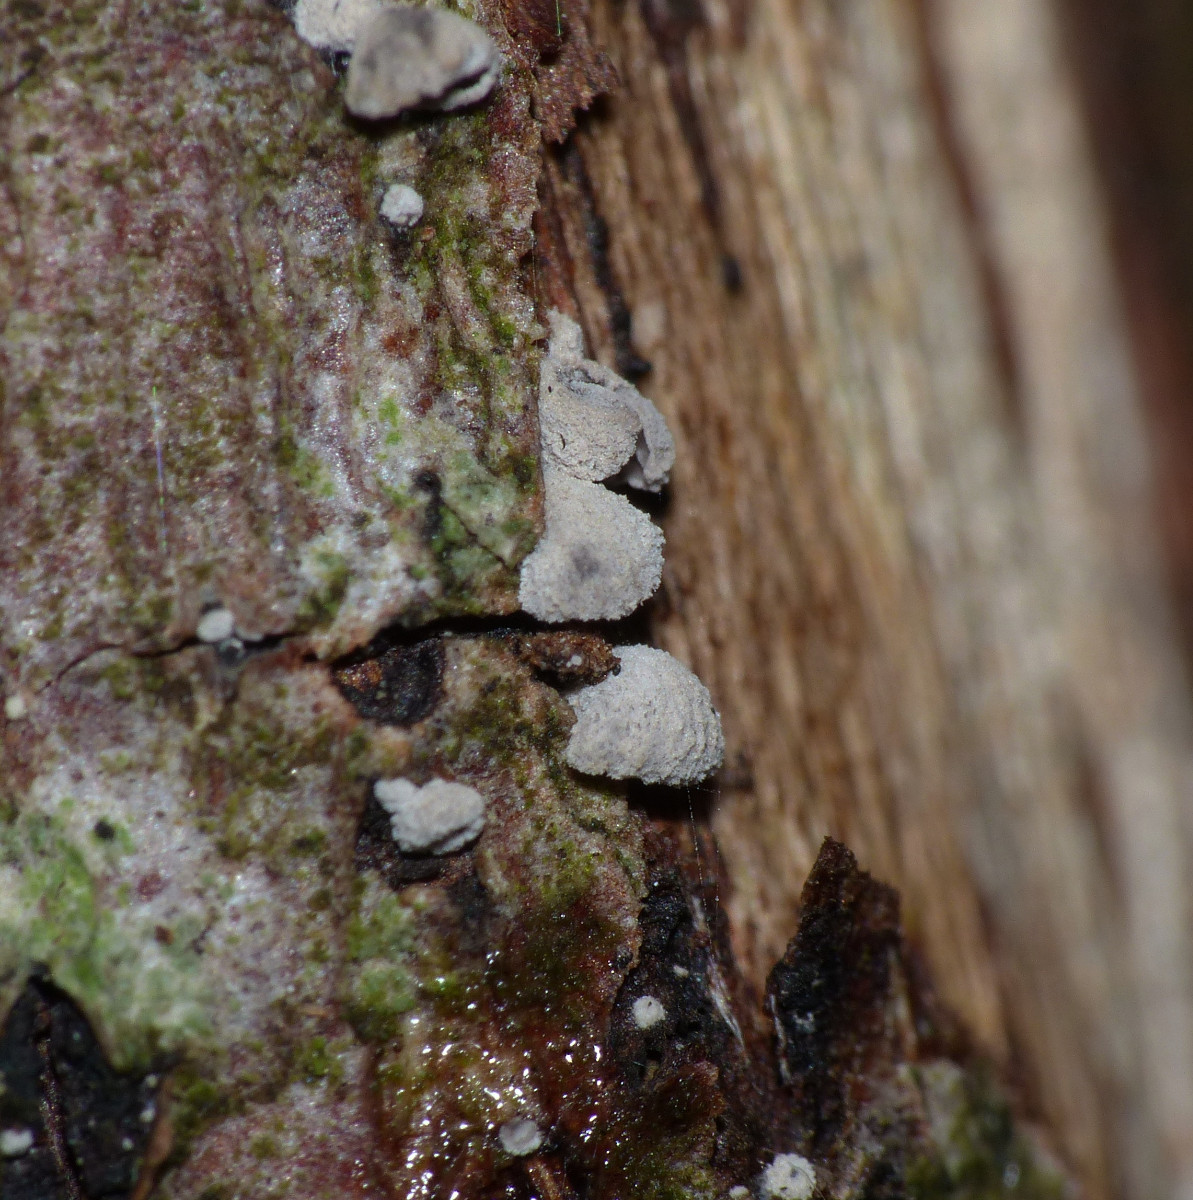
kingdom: Fungi
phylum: Basidiomycota
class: Agaricomycetes
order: Agaricales
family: Tricholomataceae
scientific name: Tricholomataceae
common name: ridderhatfamilien
